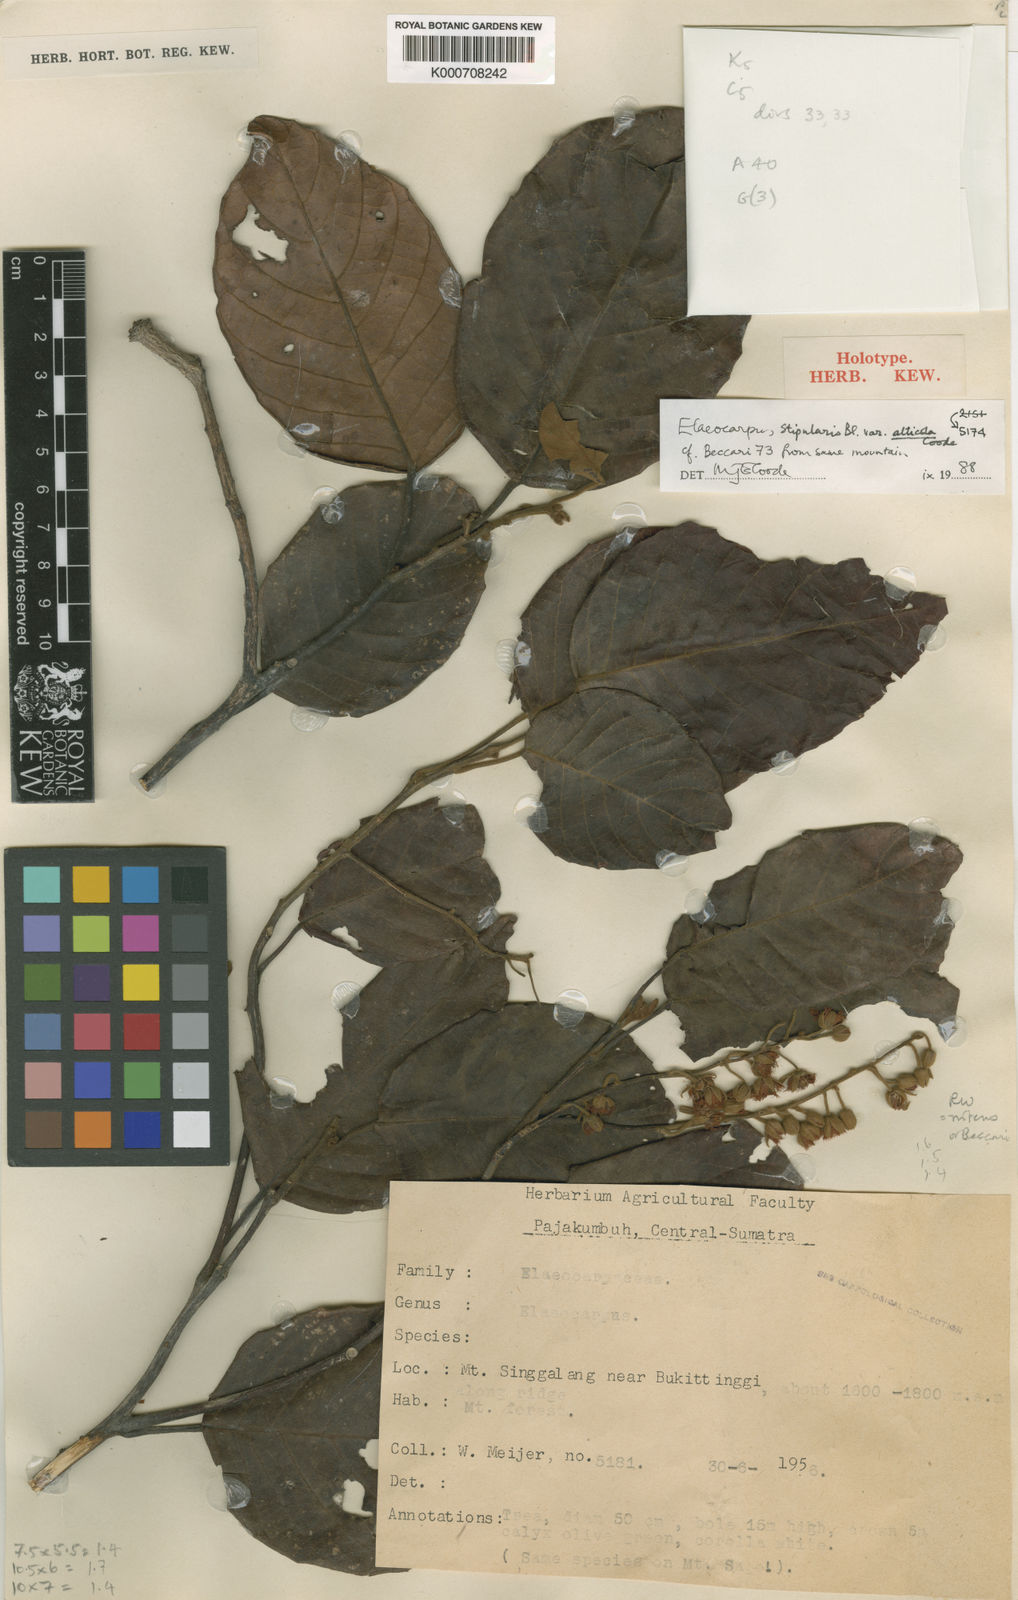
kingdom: Plantae
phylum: Tracheophyta
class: Magnoliopsida
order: Oxalidales
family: Elaeocarpaceae
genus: Elaeocarpus
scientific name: Elaeocarpus stipularis
